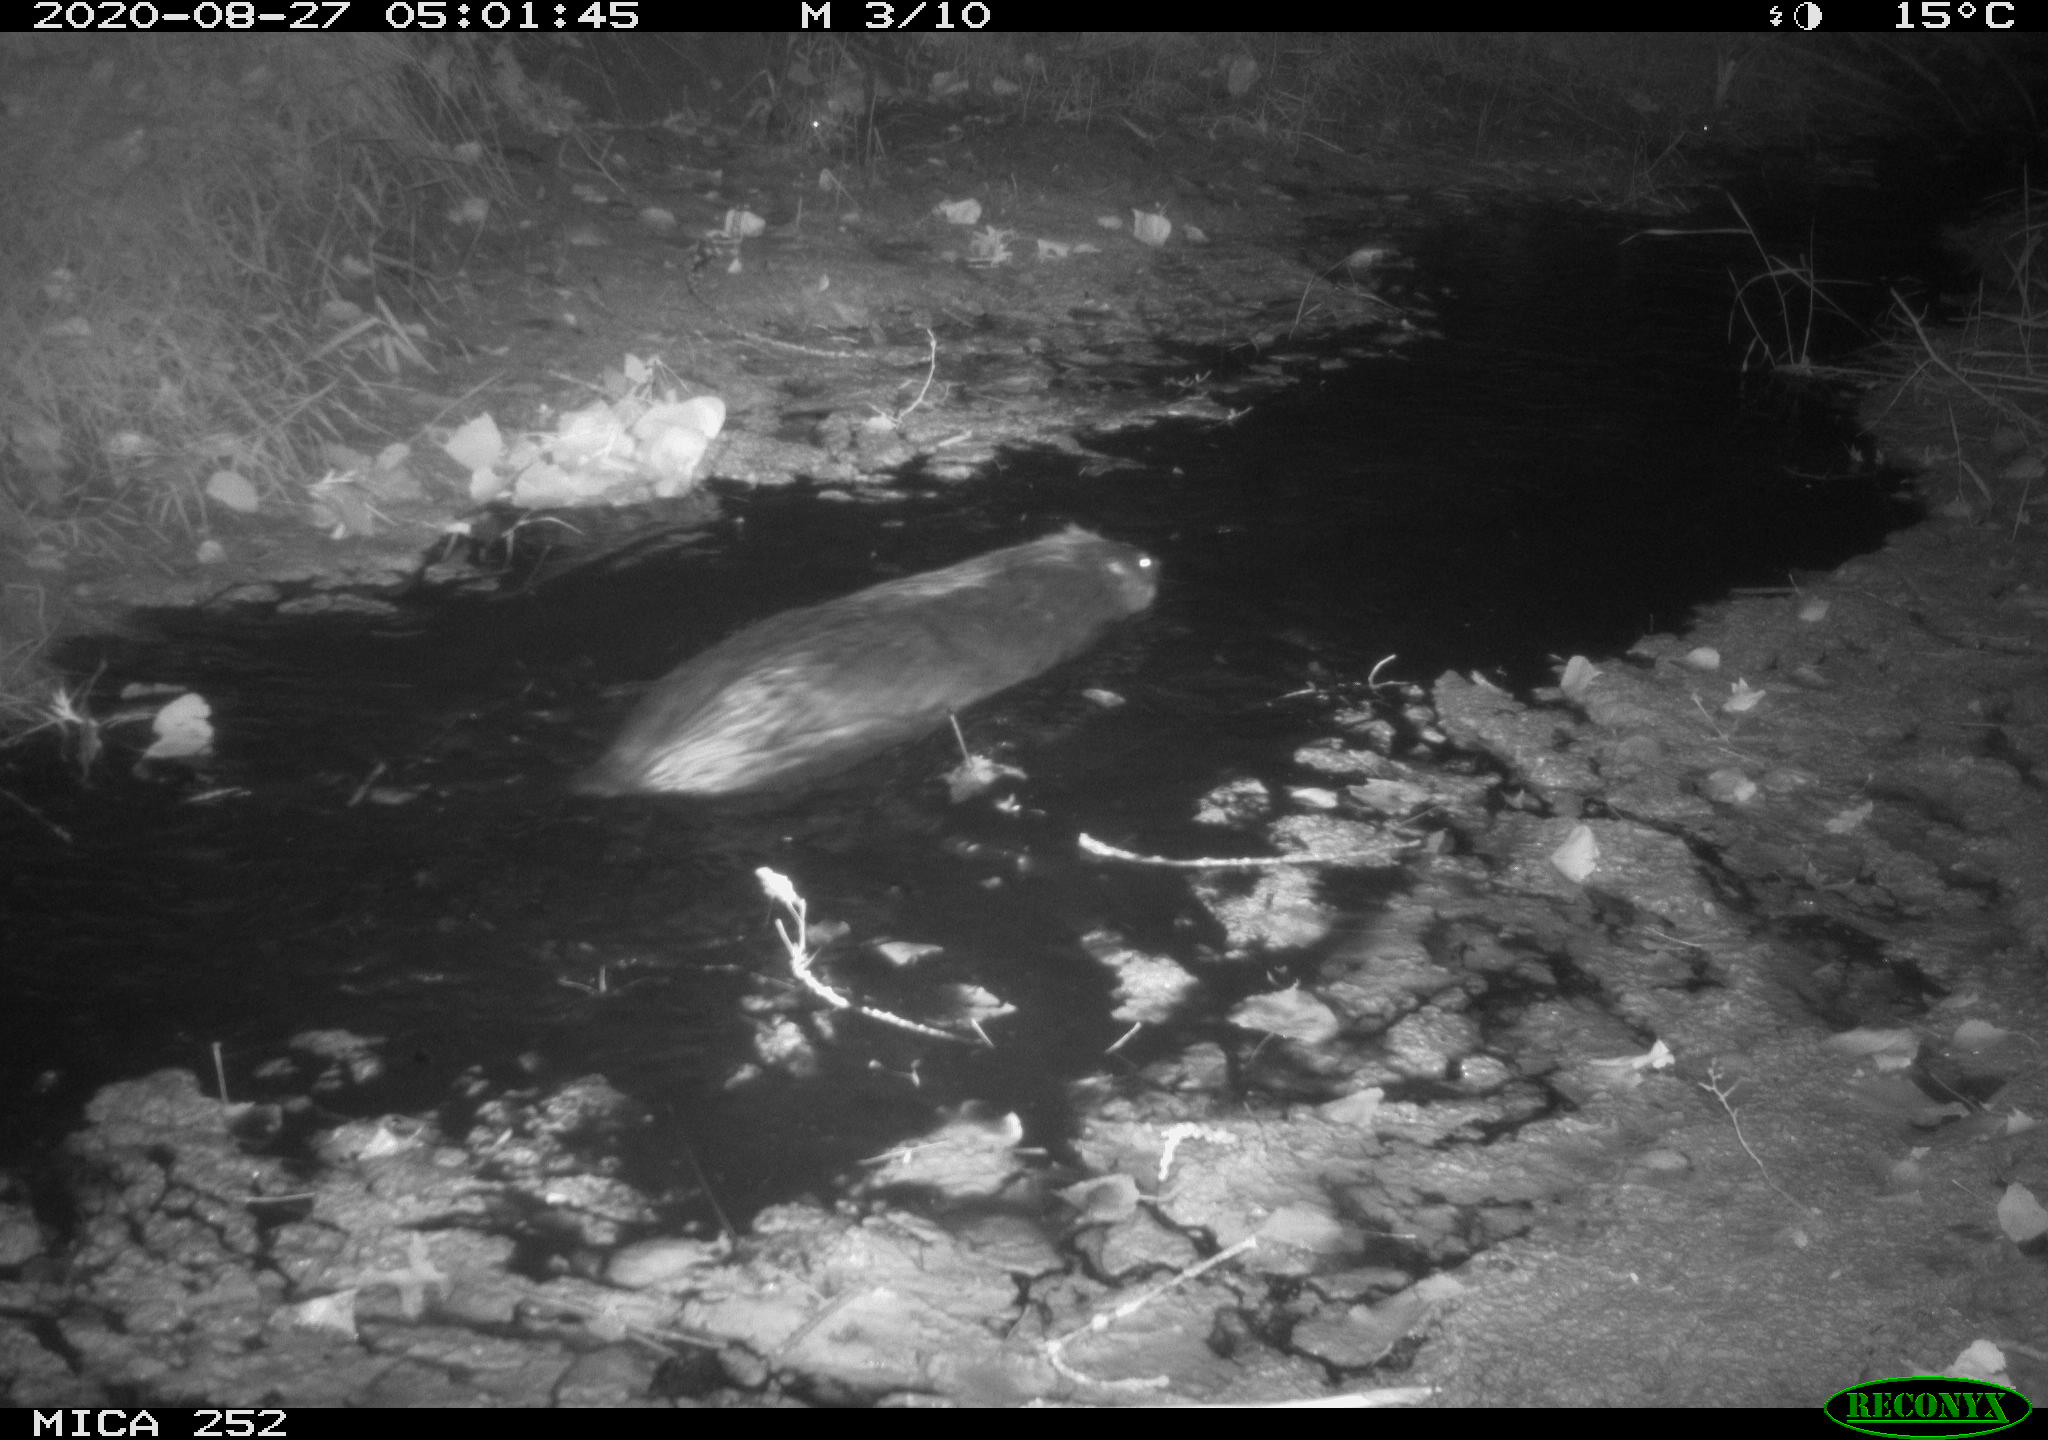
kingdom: Animalia
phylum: Chordata
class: Mammalia
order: Rodentia
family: Castoridae
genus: Castor
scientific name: Castor fiber
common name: Eurasian beaver
